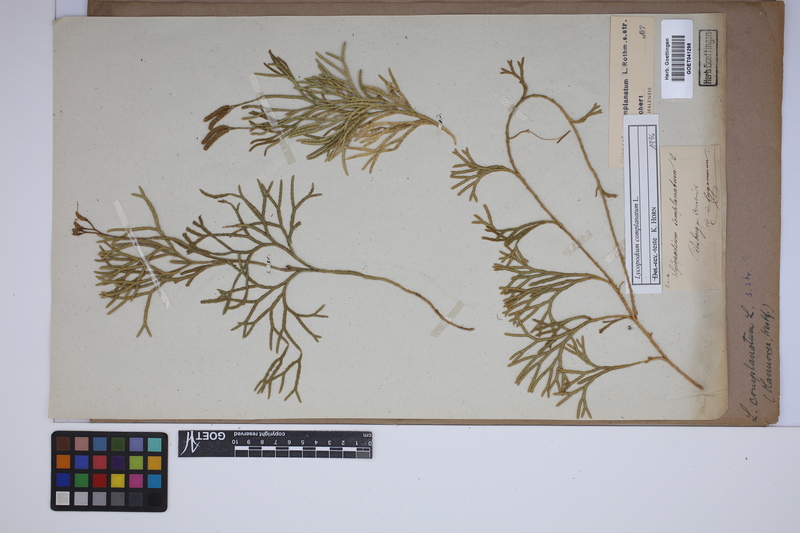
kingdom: Plantae
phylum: Tracheophyta
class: Lycopodiopsida
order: Lycopodiales
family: Lycopodiaceae
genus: Diphasiastrum
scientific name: Diphasiastrum complanatum
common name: Northern running-pine
